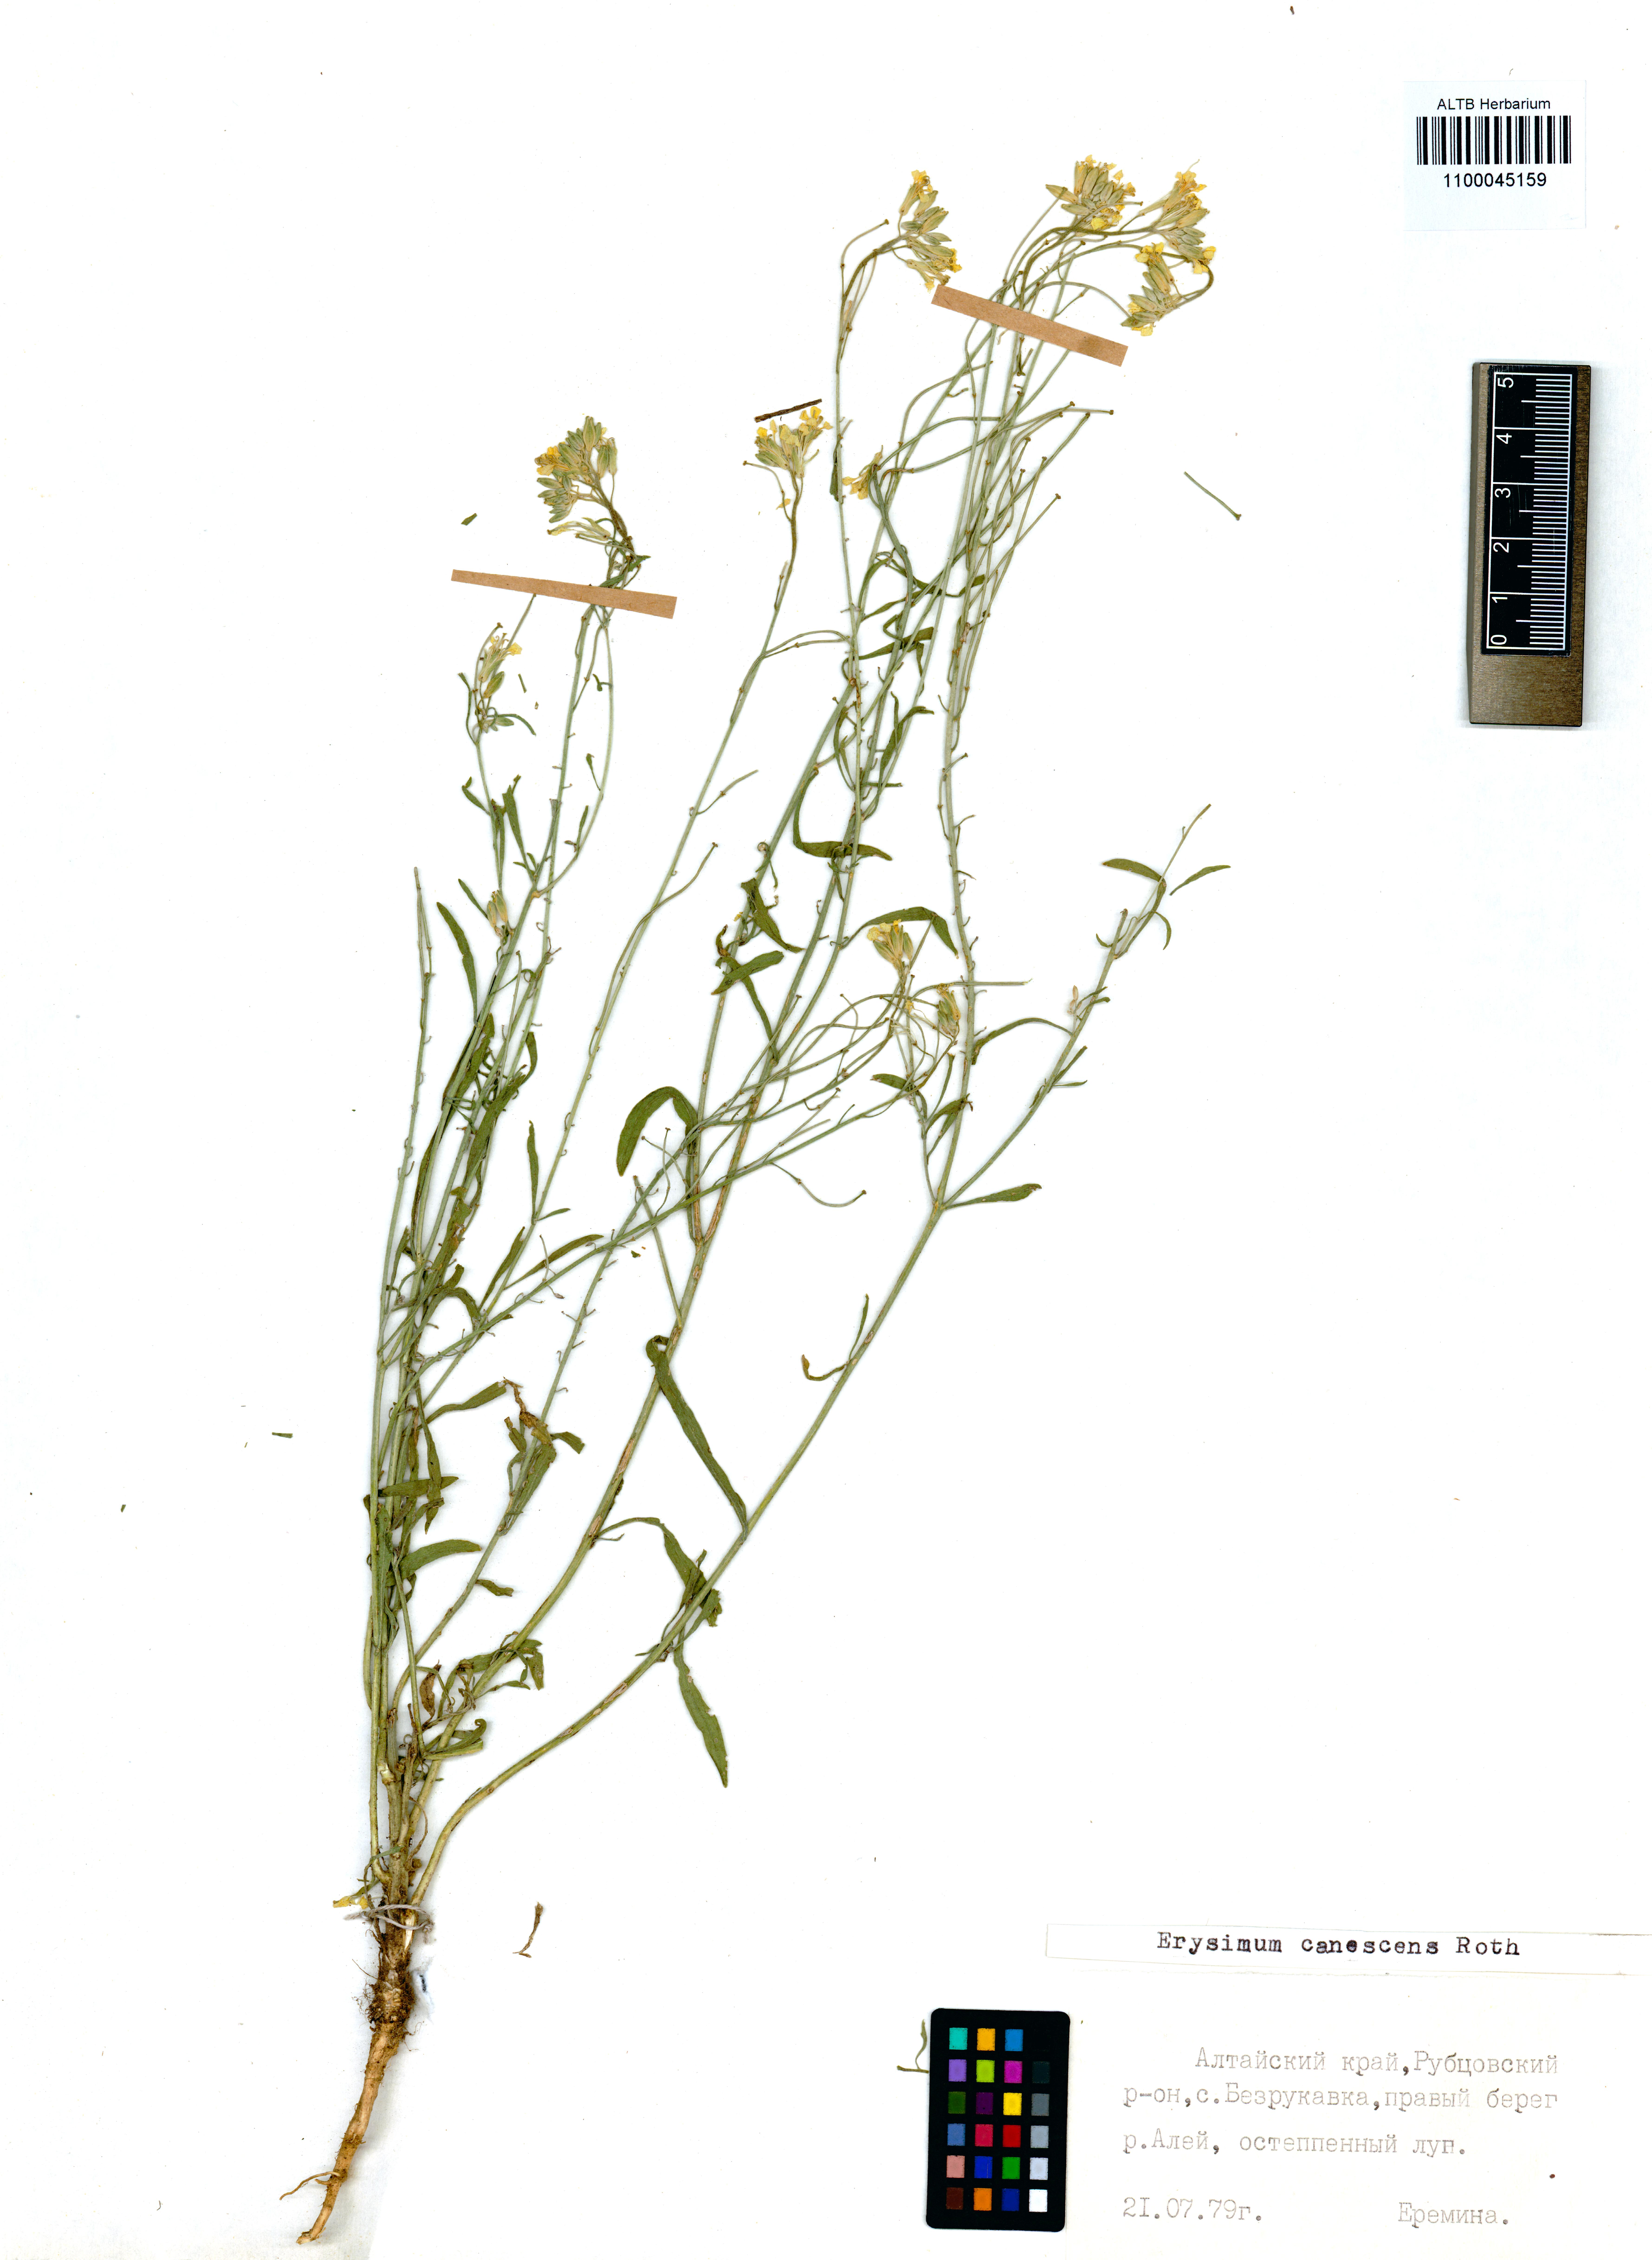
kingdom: Plantae
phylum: Tracheophyta
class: Magnoliopsida
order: Brassicales
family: Brassicaceae
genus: Erysimum
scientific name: Erysimum canescens
